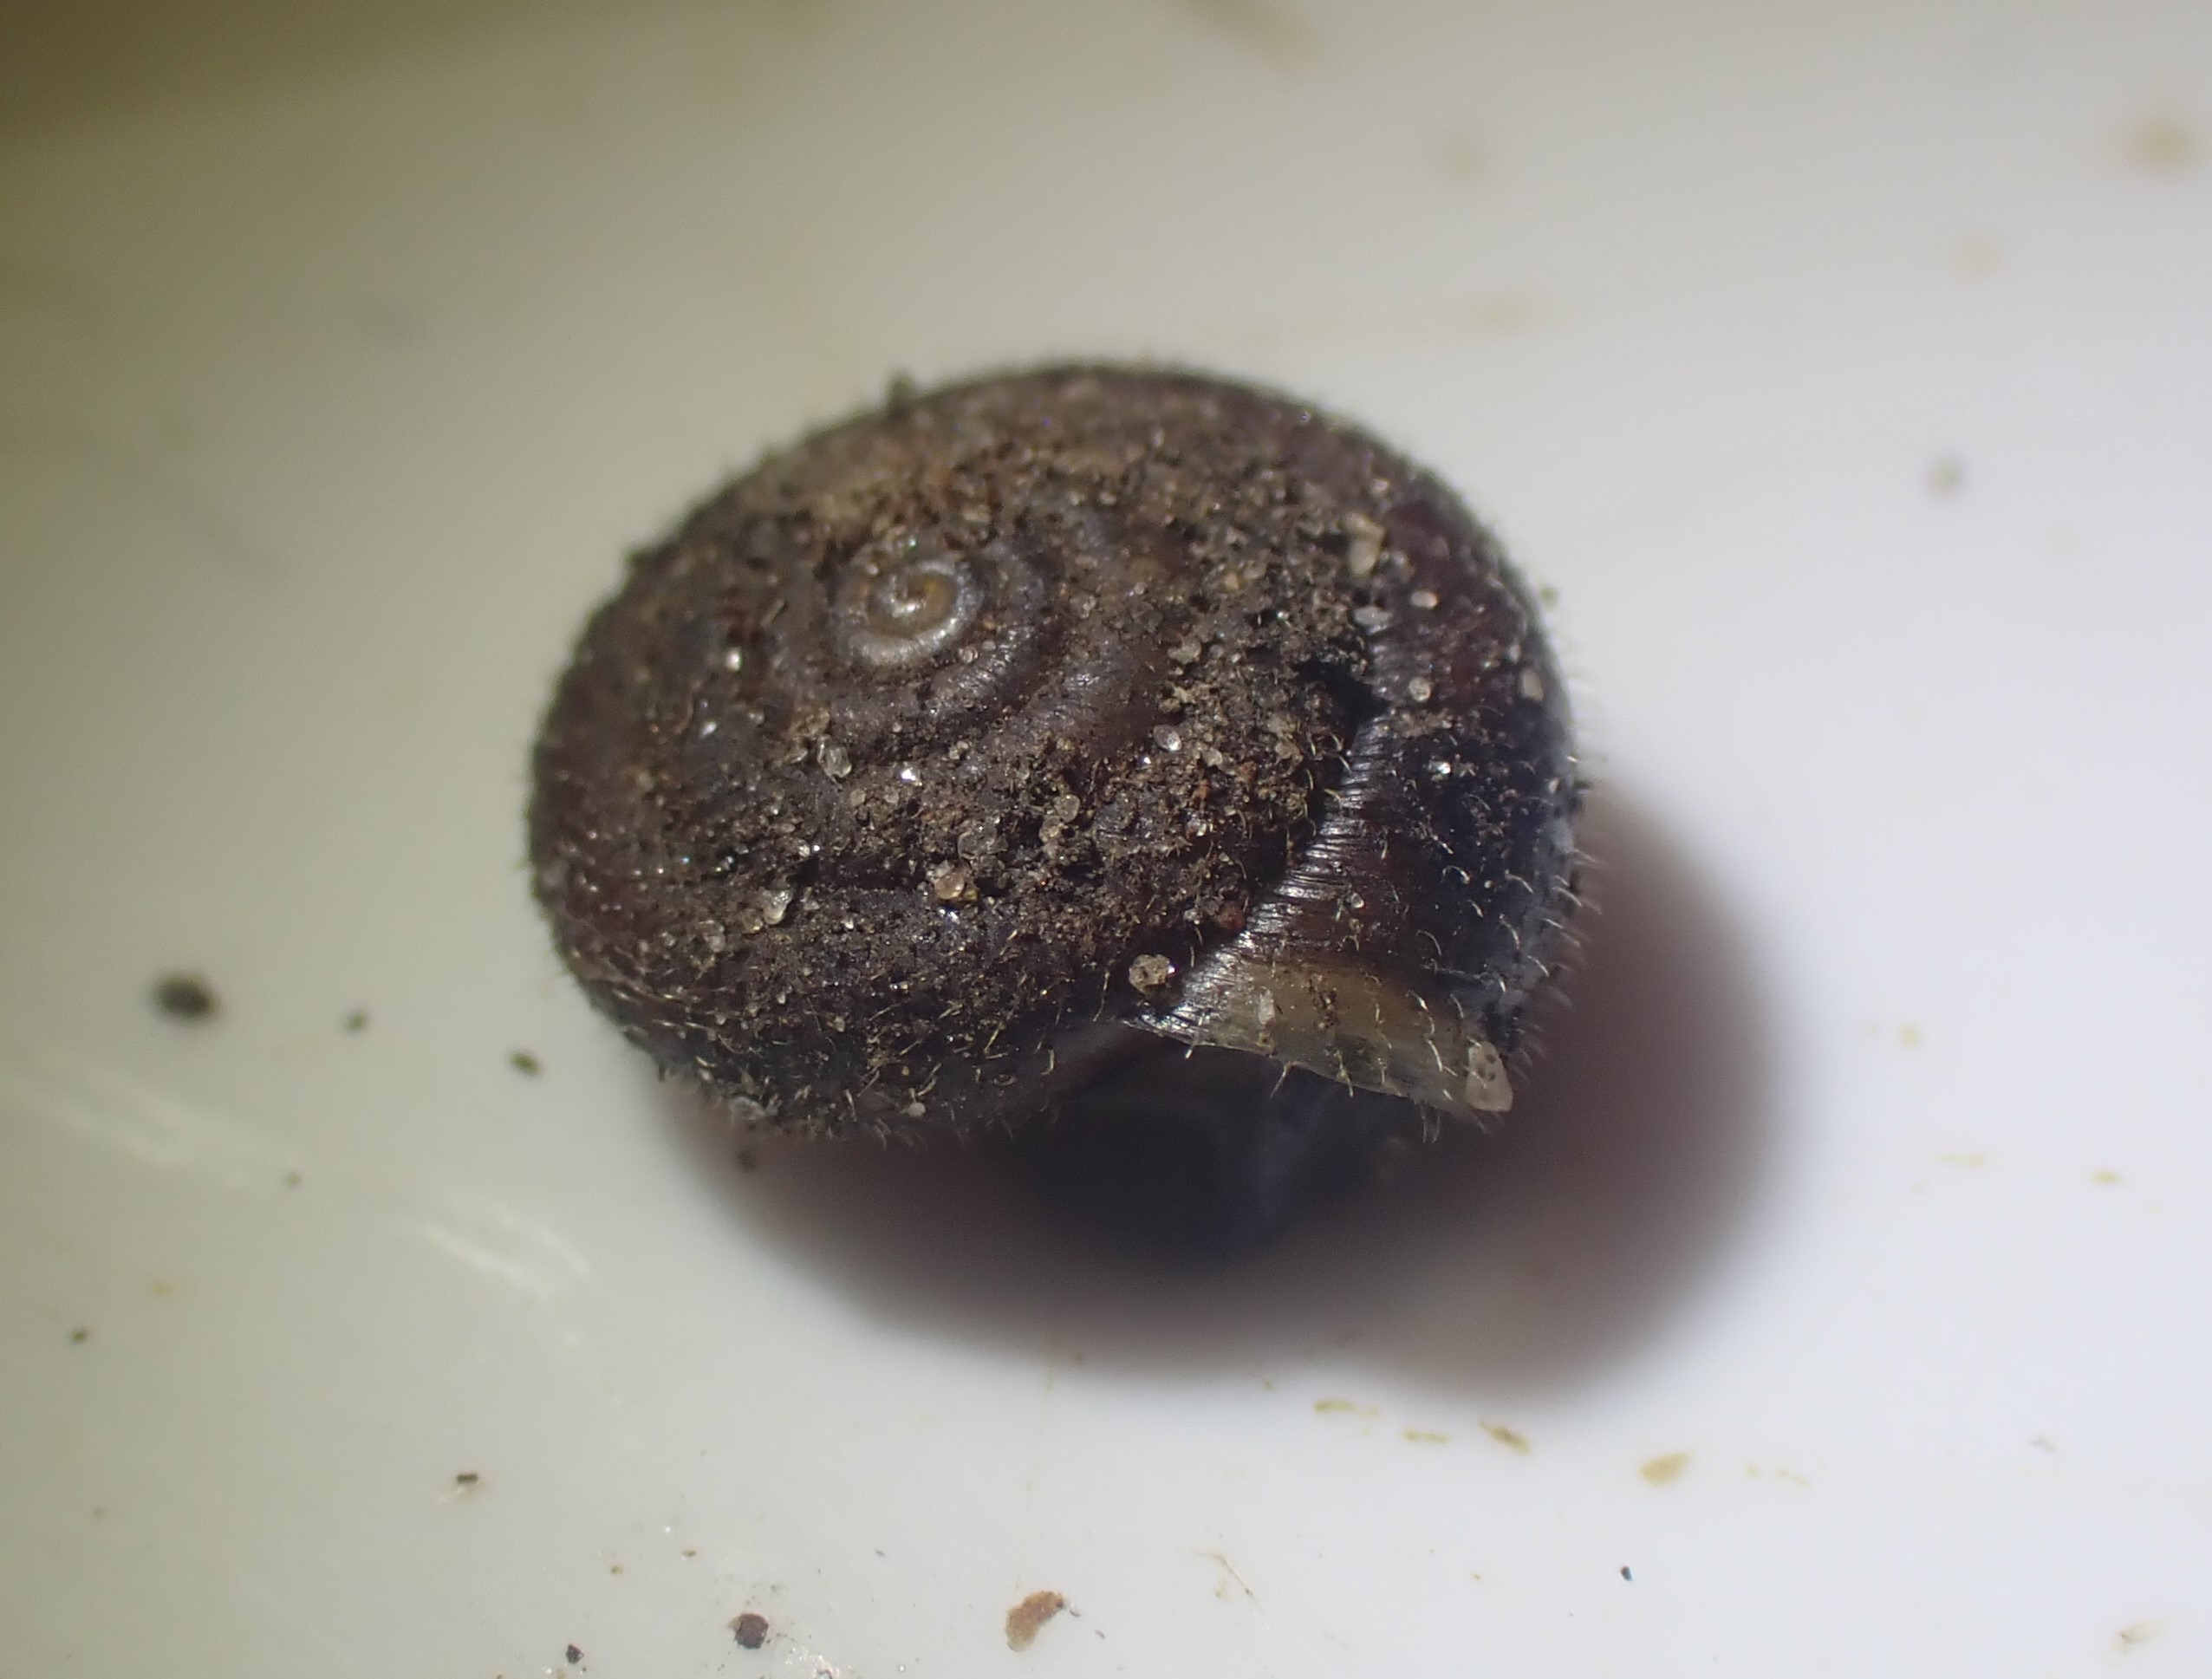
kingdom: Animalia
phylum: Mollusca
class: Gastropoda
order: Stylommatophora
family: Hygromiidae
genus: Trochulus
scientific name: Trochulus hispidus
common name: Håret snegl
